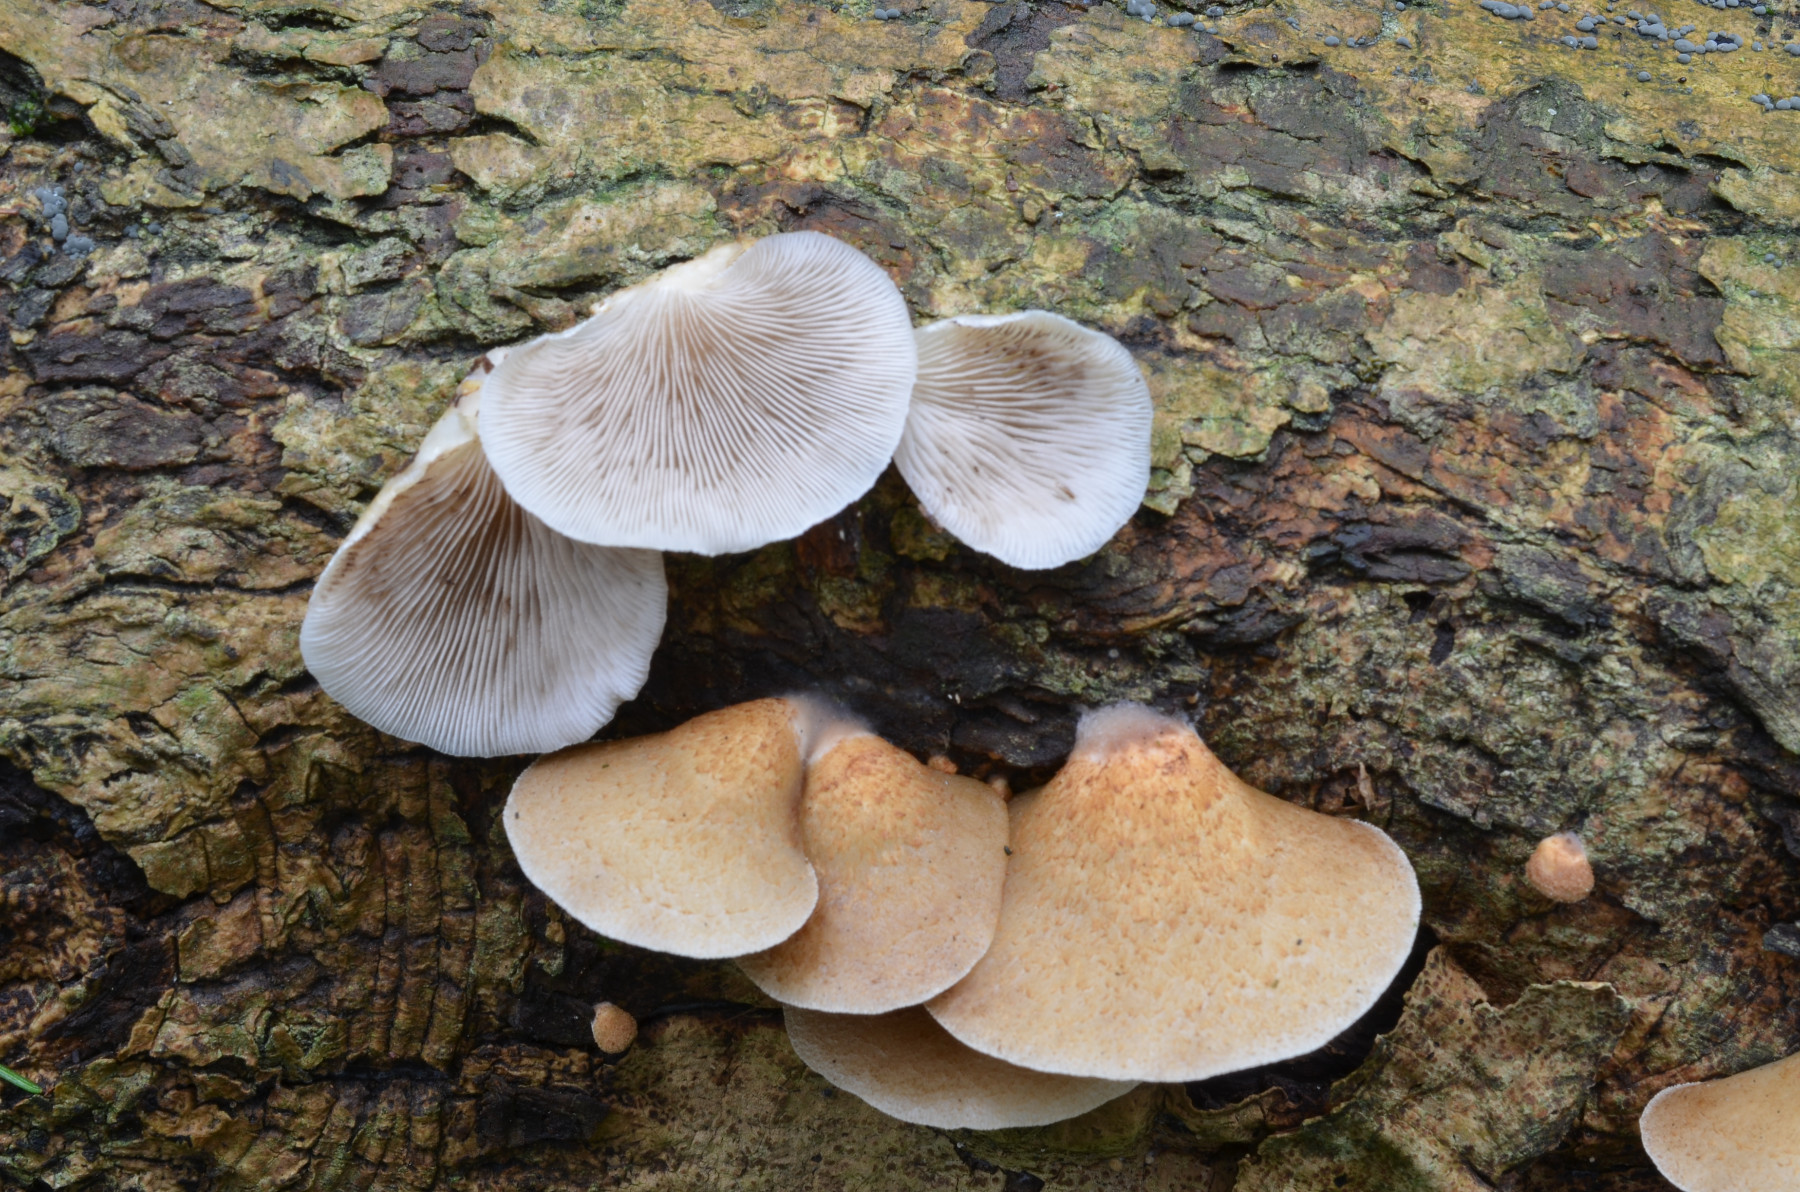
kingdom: Fungi
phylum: Basidiomycota
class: Agaricomycetes
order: Agaricales
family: Crepidotaceae
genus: Crepidotus
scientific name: Crepidotus calolepis
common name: småskællet muslingesvamp
